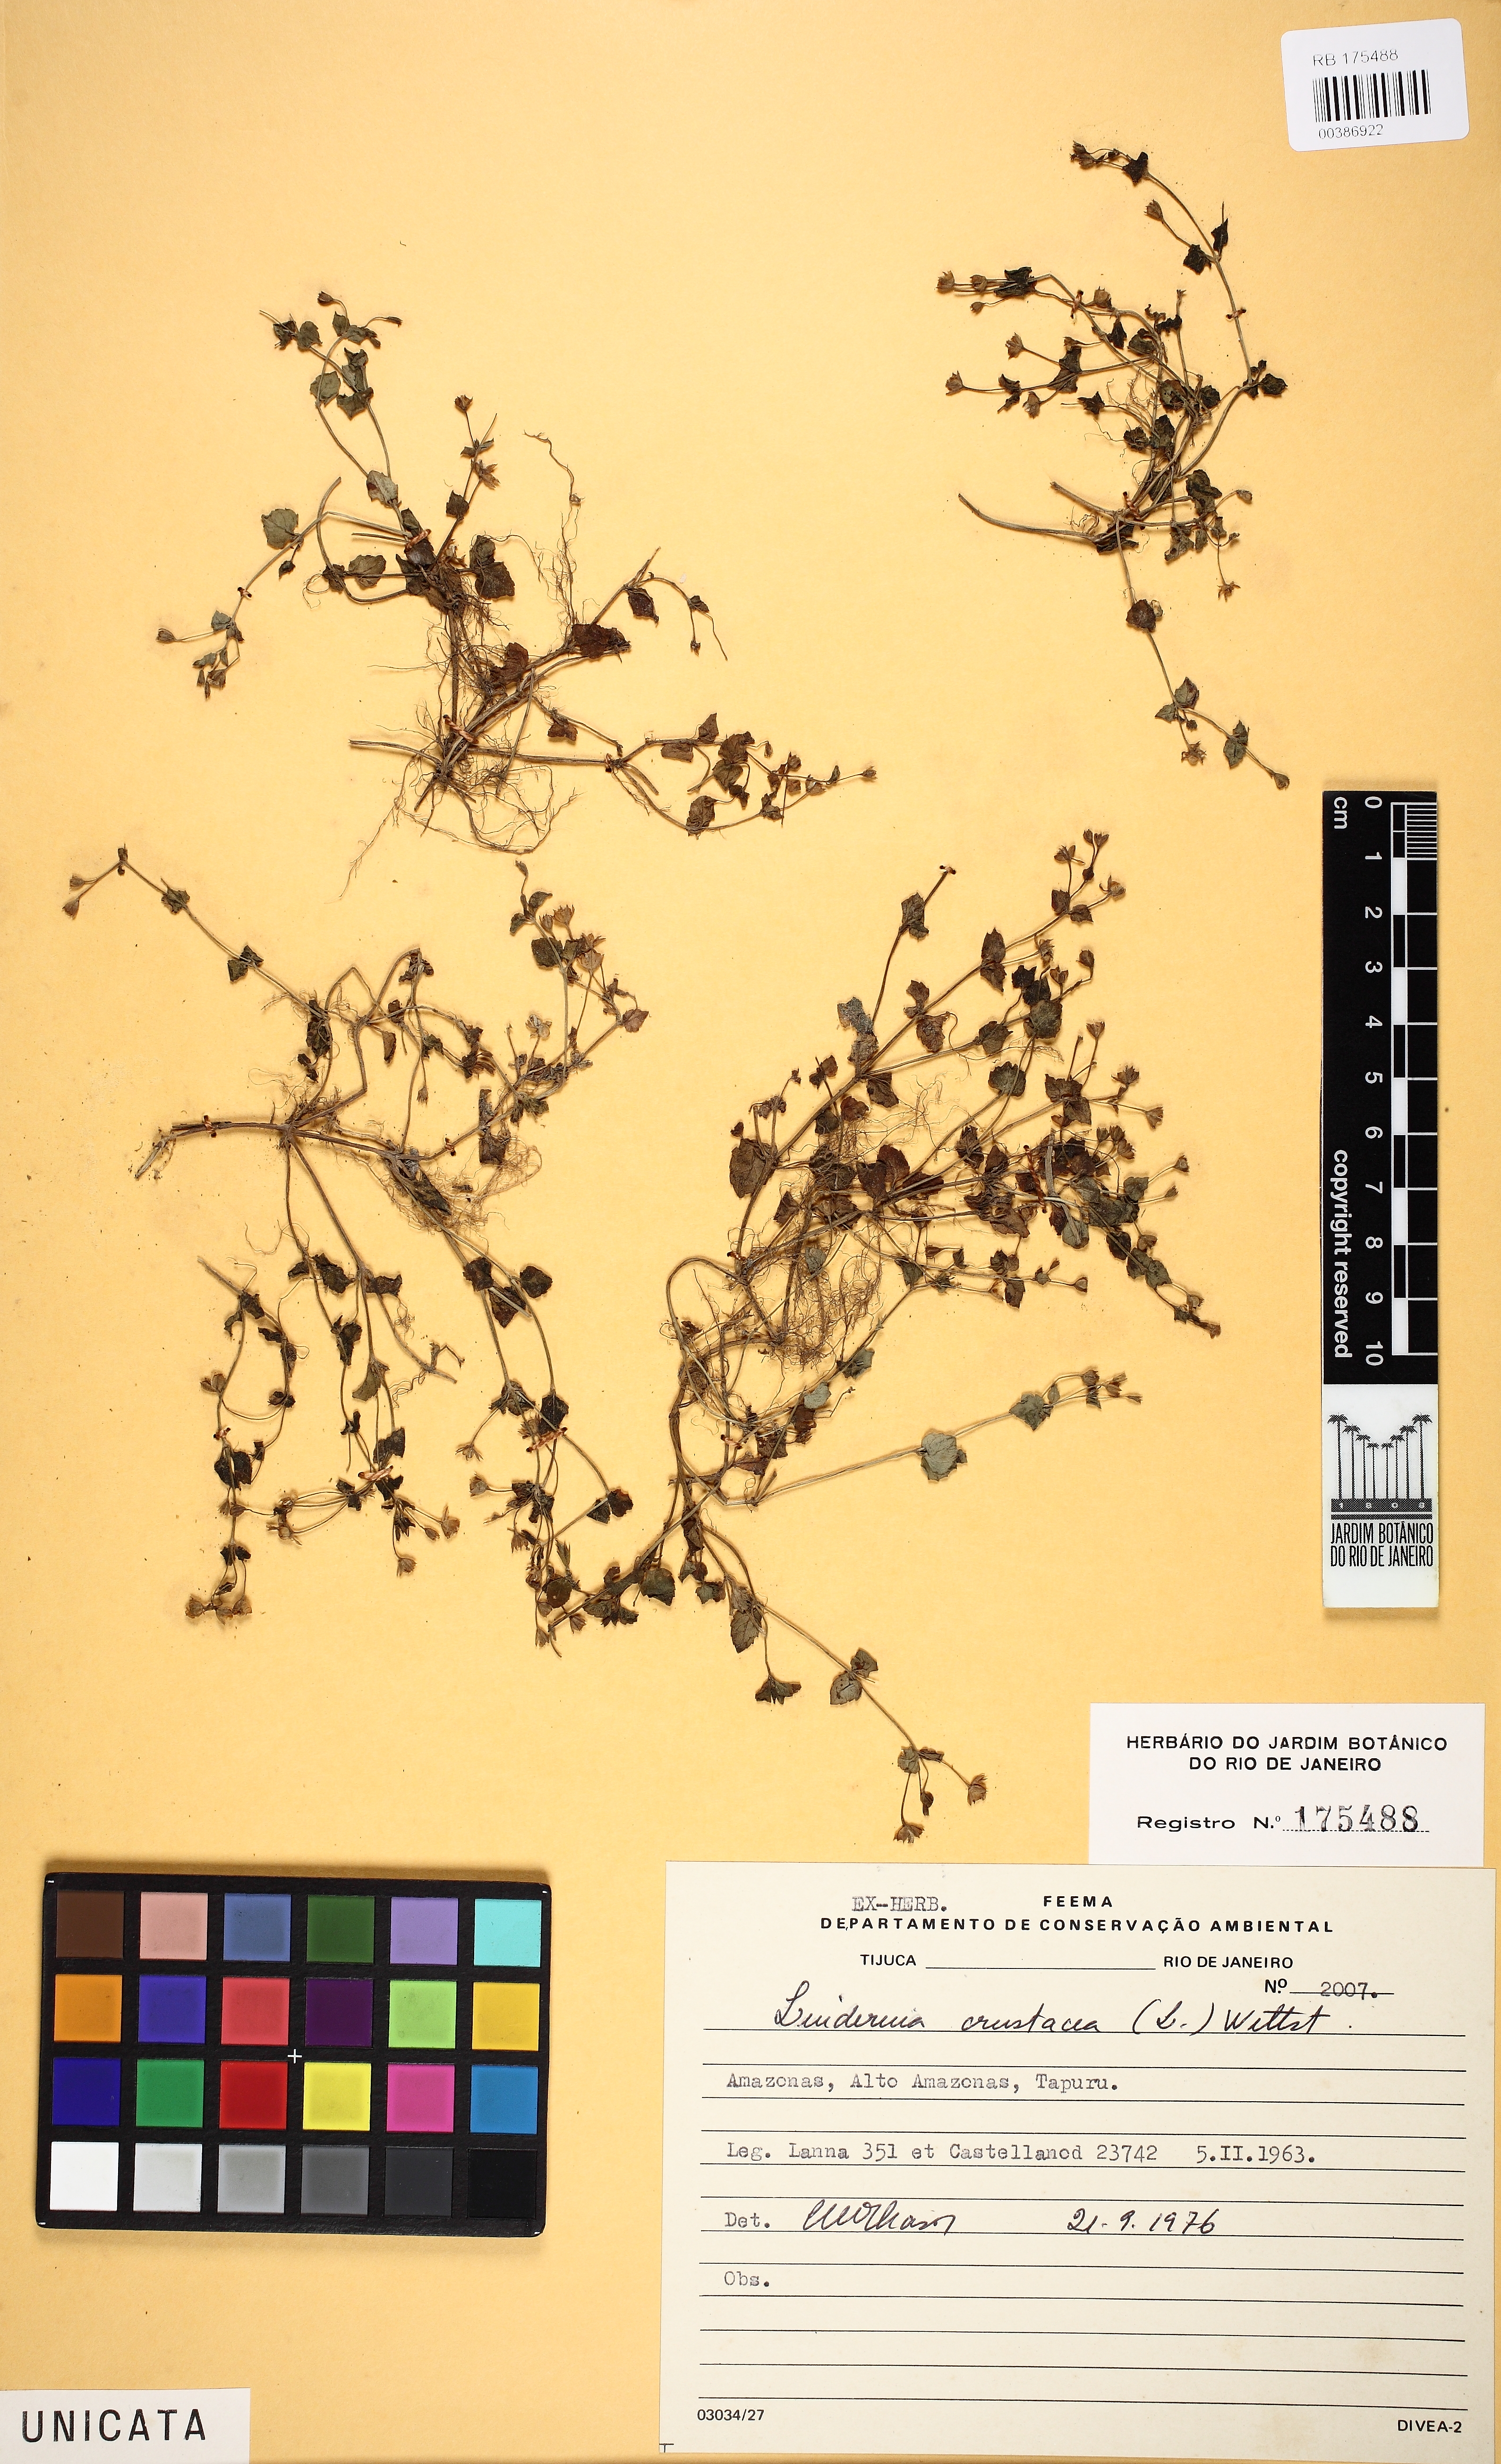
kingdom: Plantae
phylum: Tracheophyta
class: Magnoliopsida
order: Lamiales
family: Linderniaceae
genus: Torenia
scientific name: Torenia crustacea
